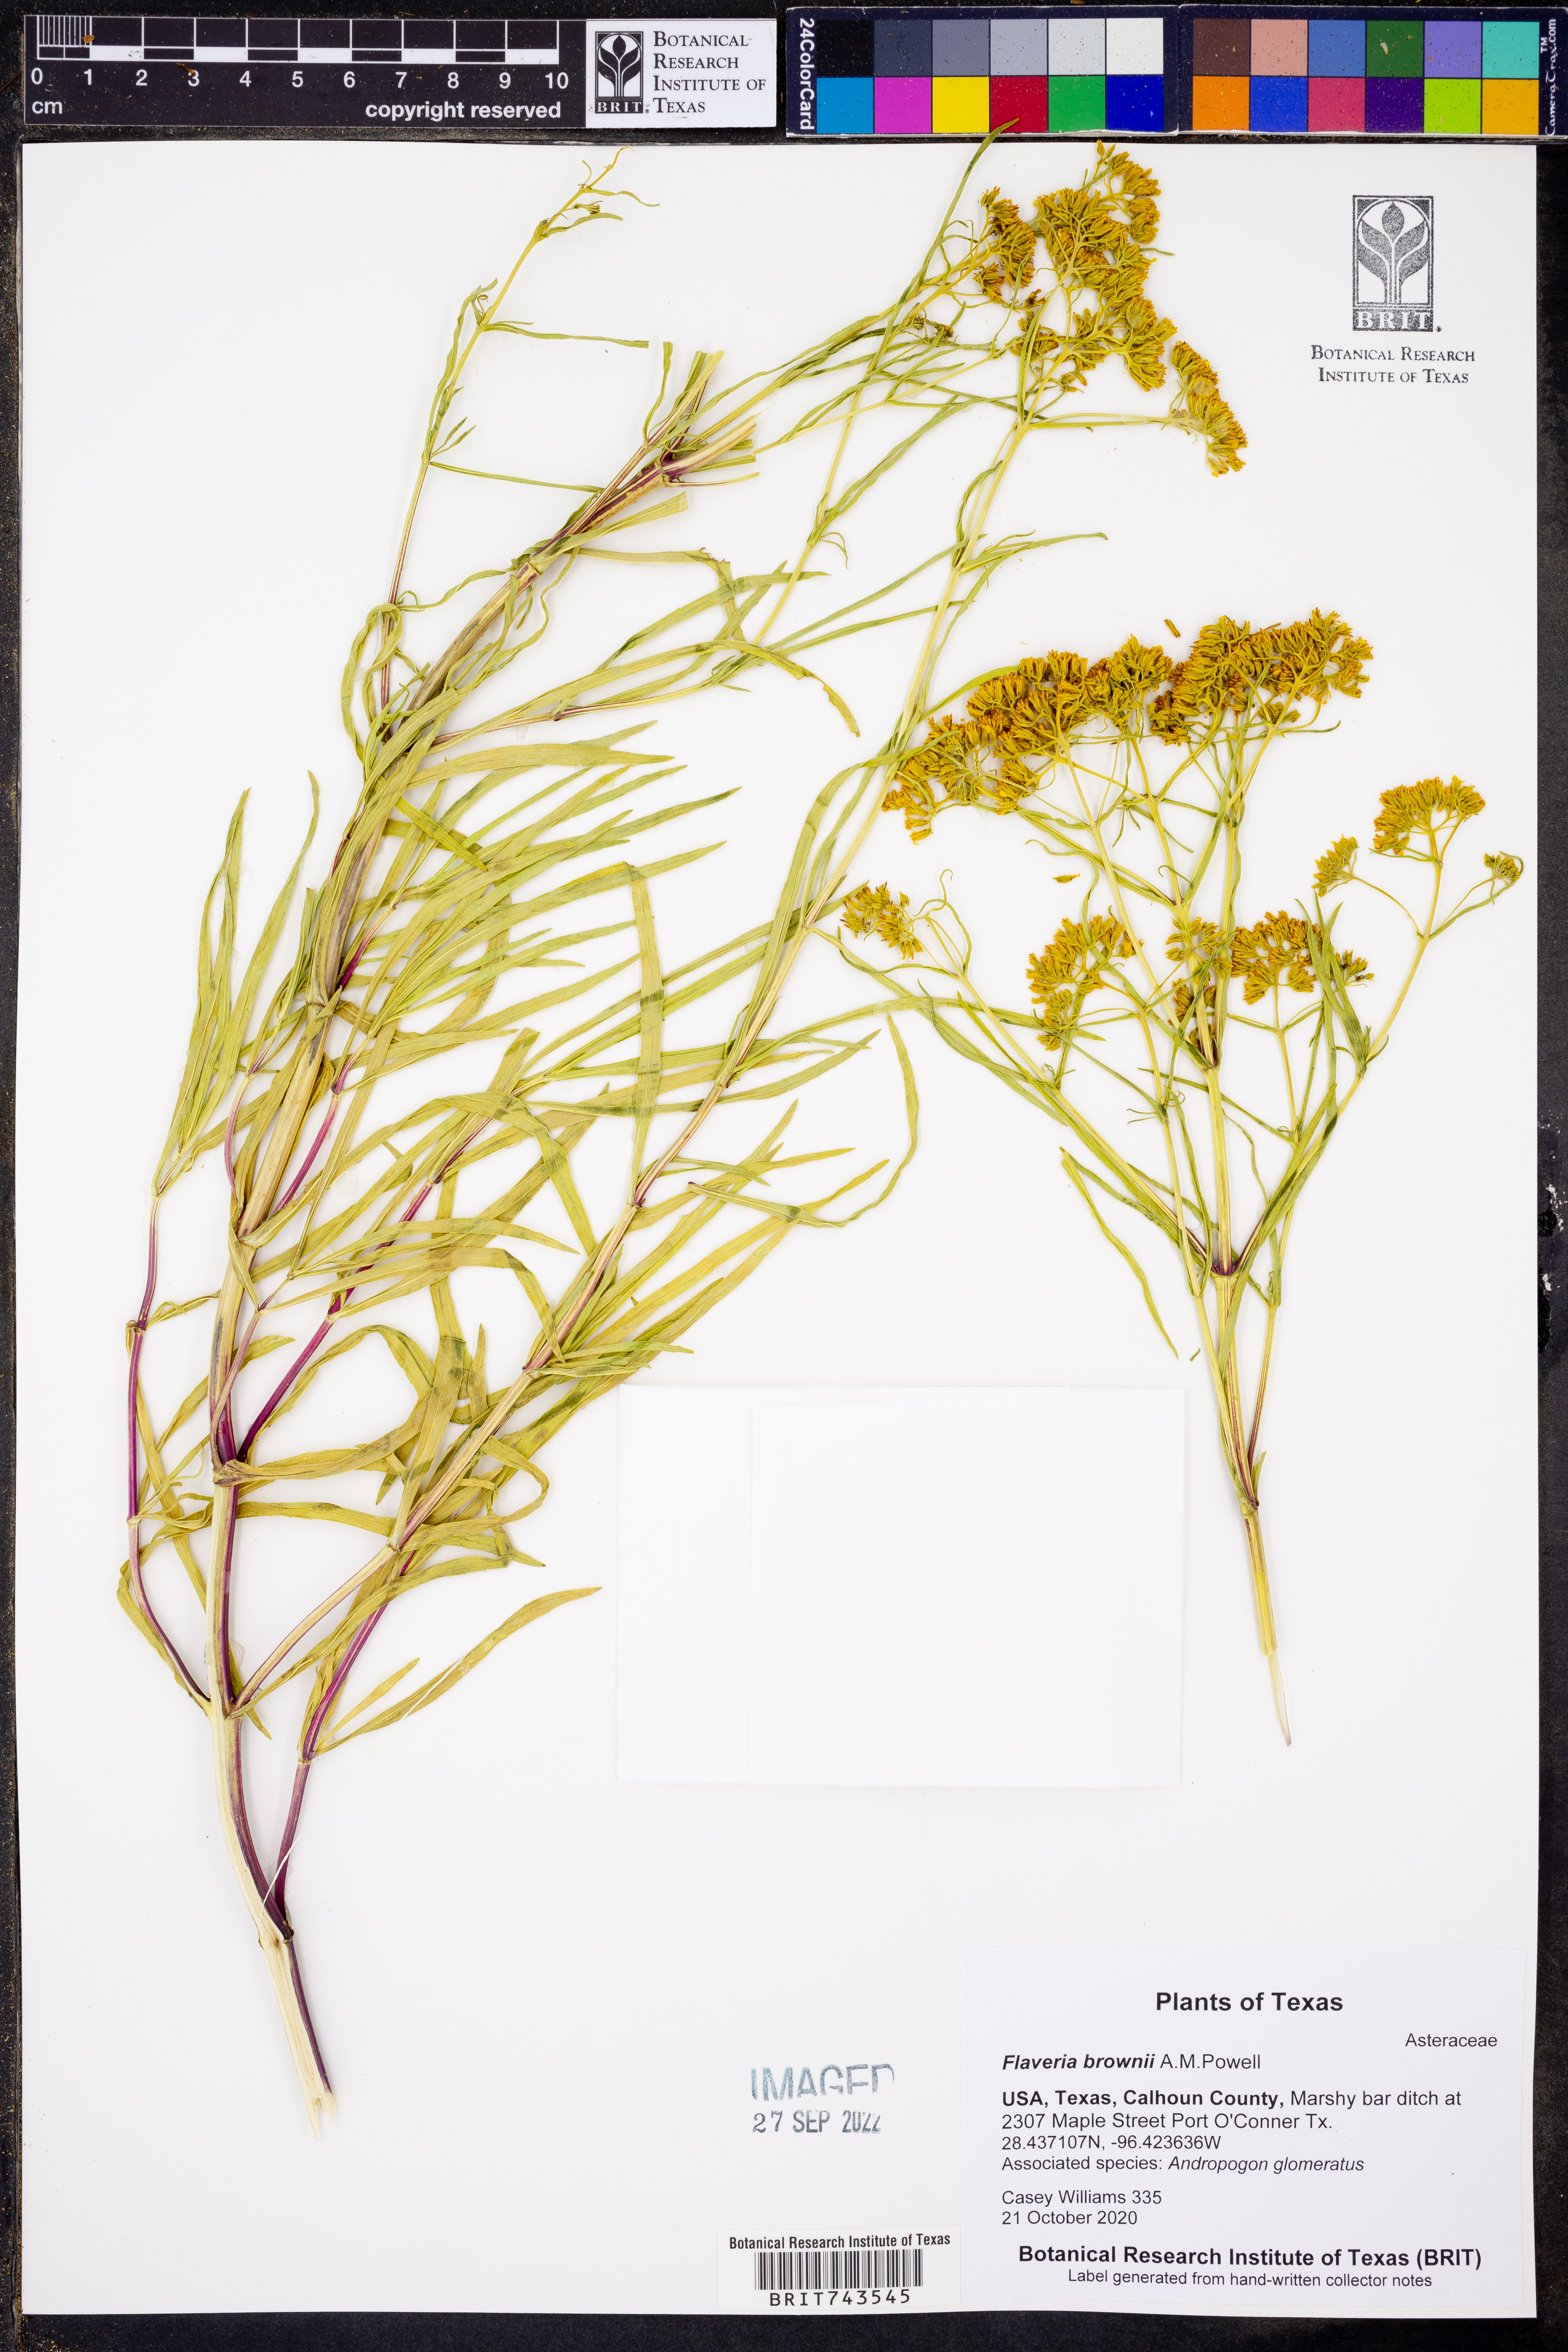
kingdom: Plantae
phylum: Tracheophyta
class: Magnoliopsida
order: Asterales
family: Asteraceae
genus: Flaveria
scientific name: Flaveria brownii
